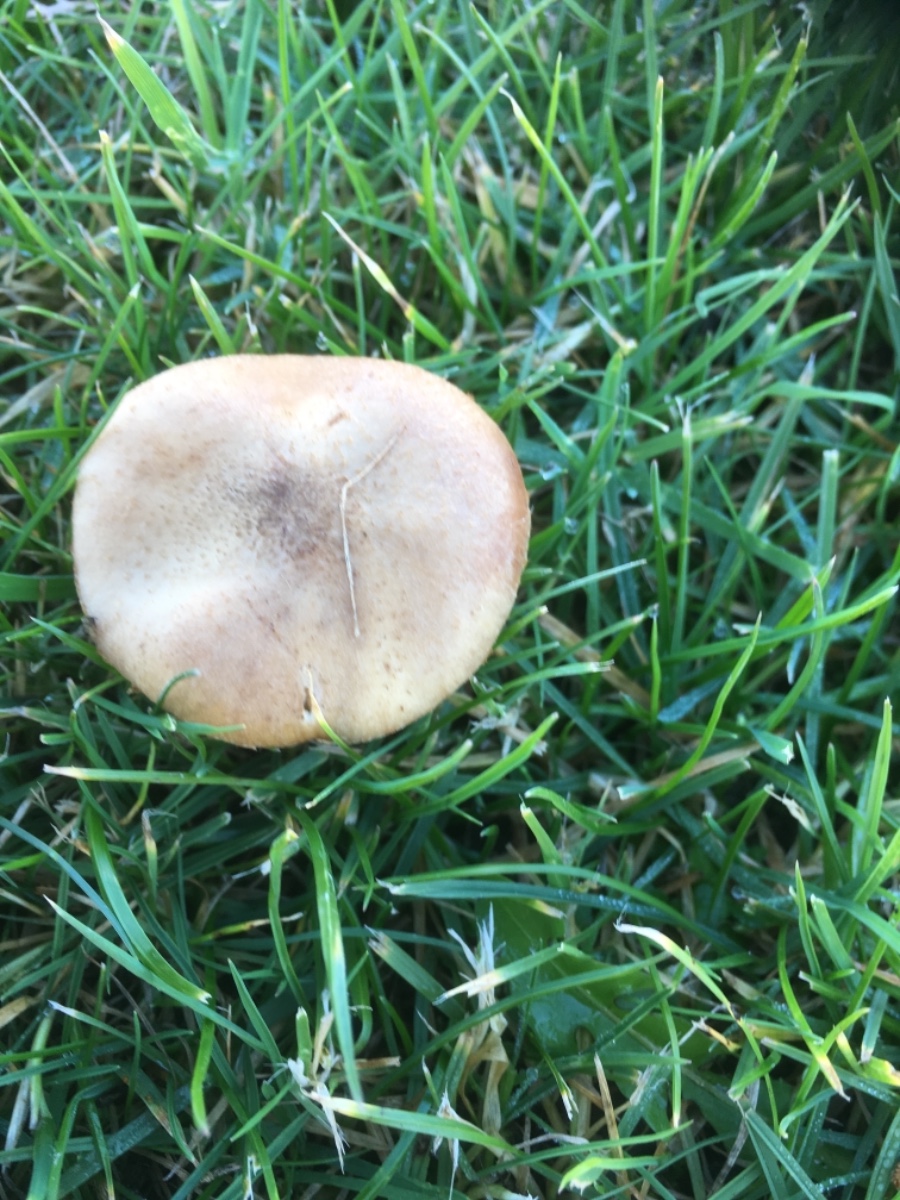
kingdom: Fungi
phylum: Basidiomycota
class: Agaricomycetes
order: Agaricales
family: Physalacriaceae
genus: Armillaria
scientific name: Armillaria lutea
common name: køllestokket honningsvamp
